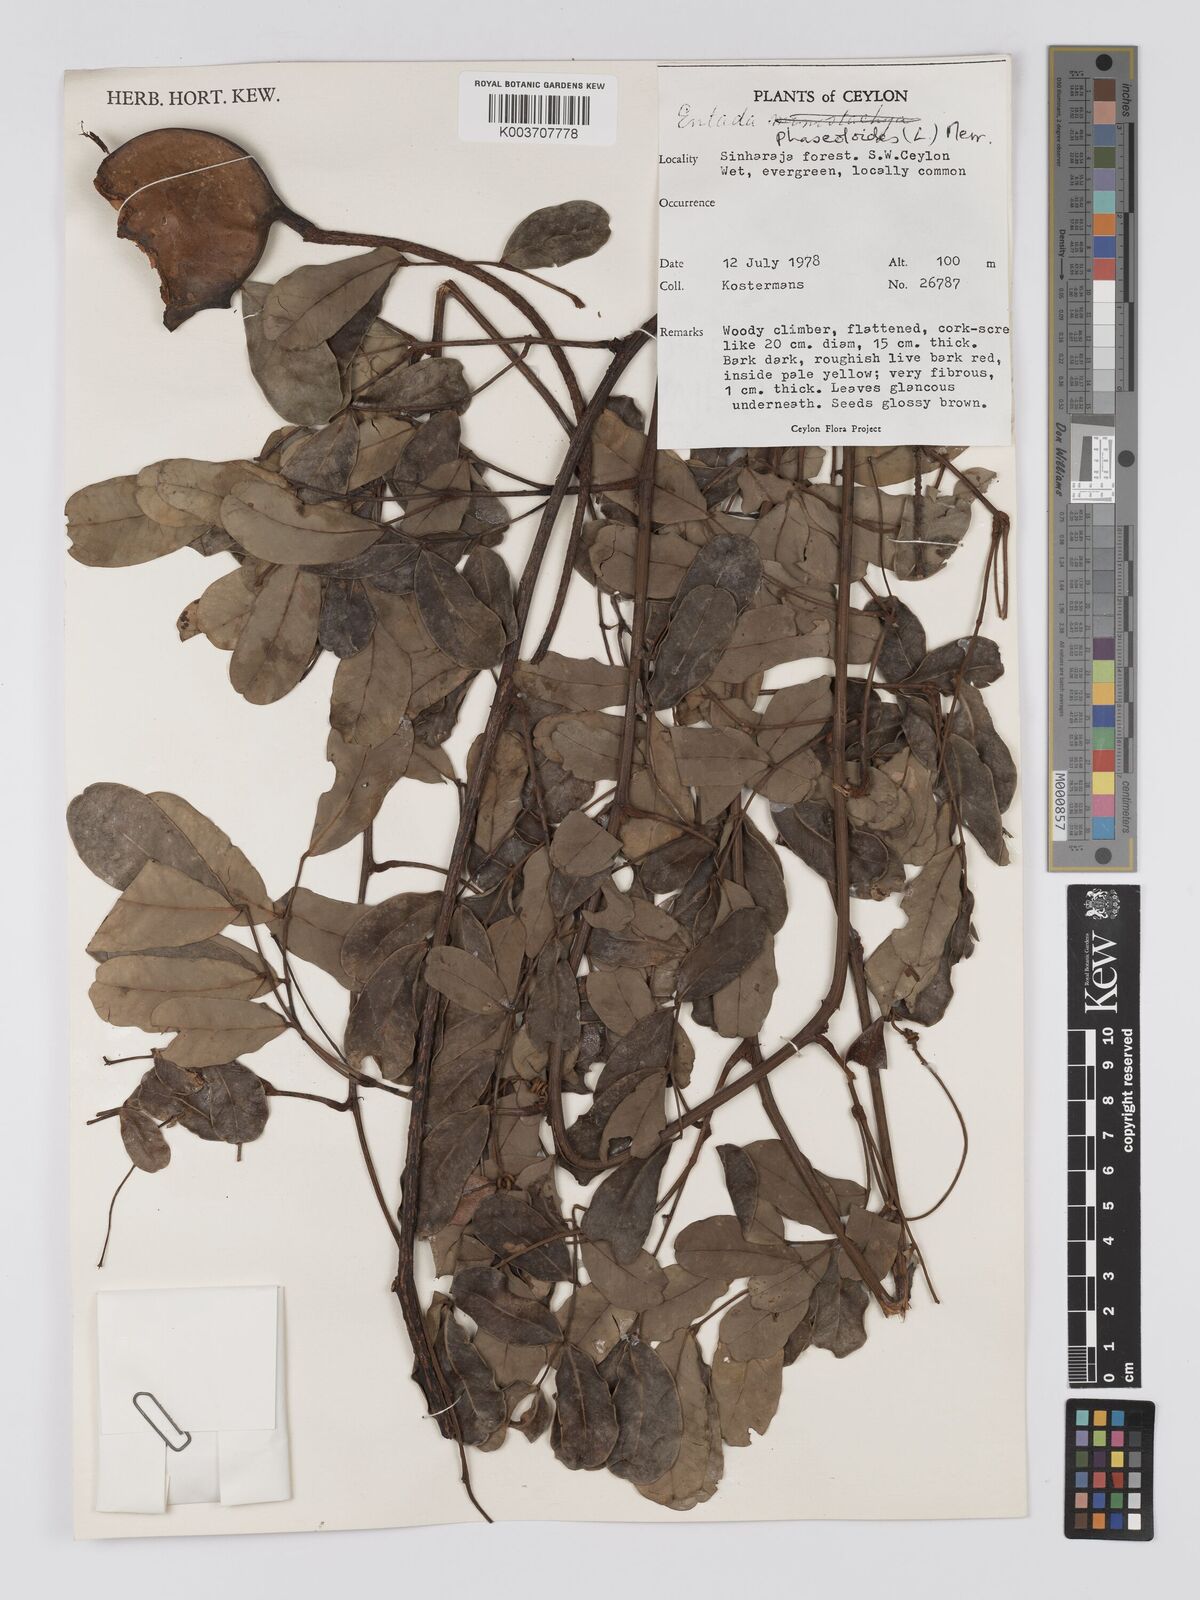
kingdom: Plantae
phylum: Tracheophyta
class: Magnoliopsida
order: Fabales
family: Fabaceae
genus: Entada
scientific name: Entada phaseoloides
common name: Matchbox-bean
